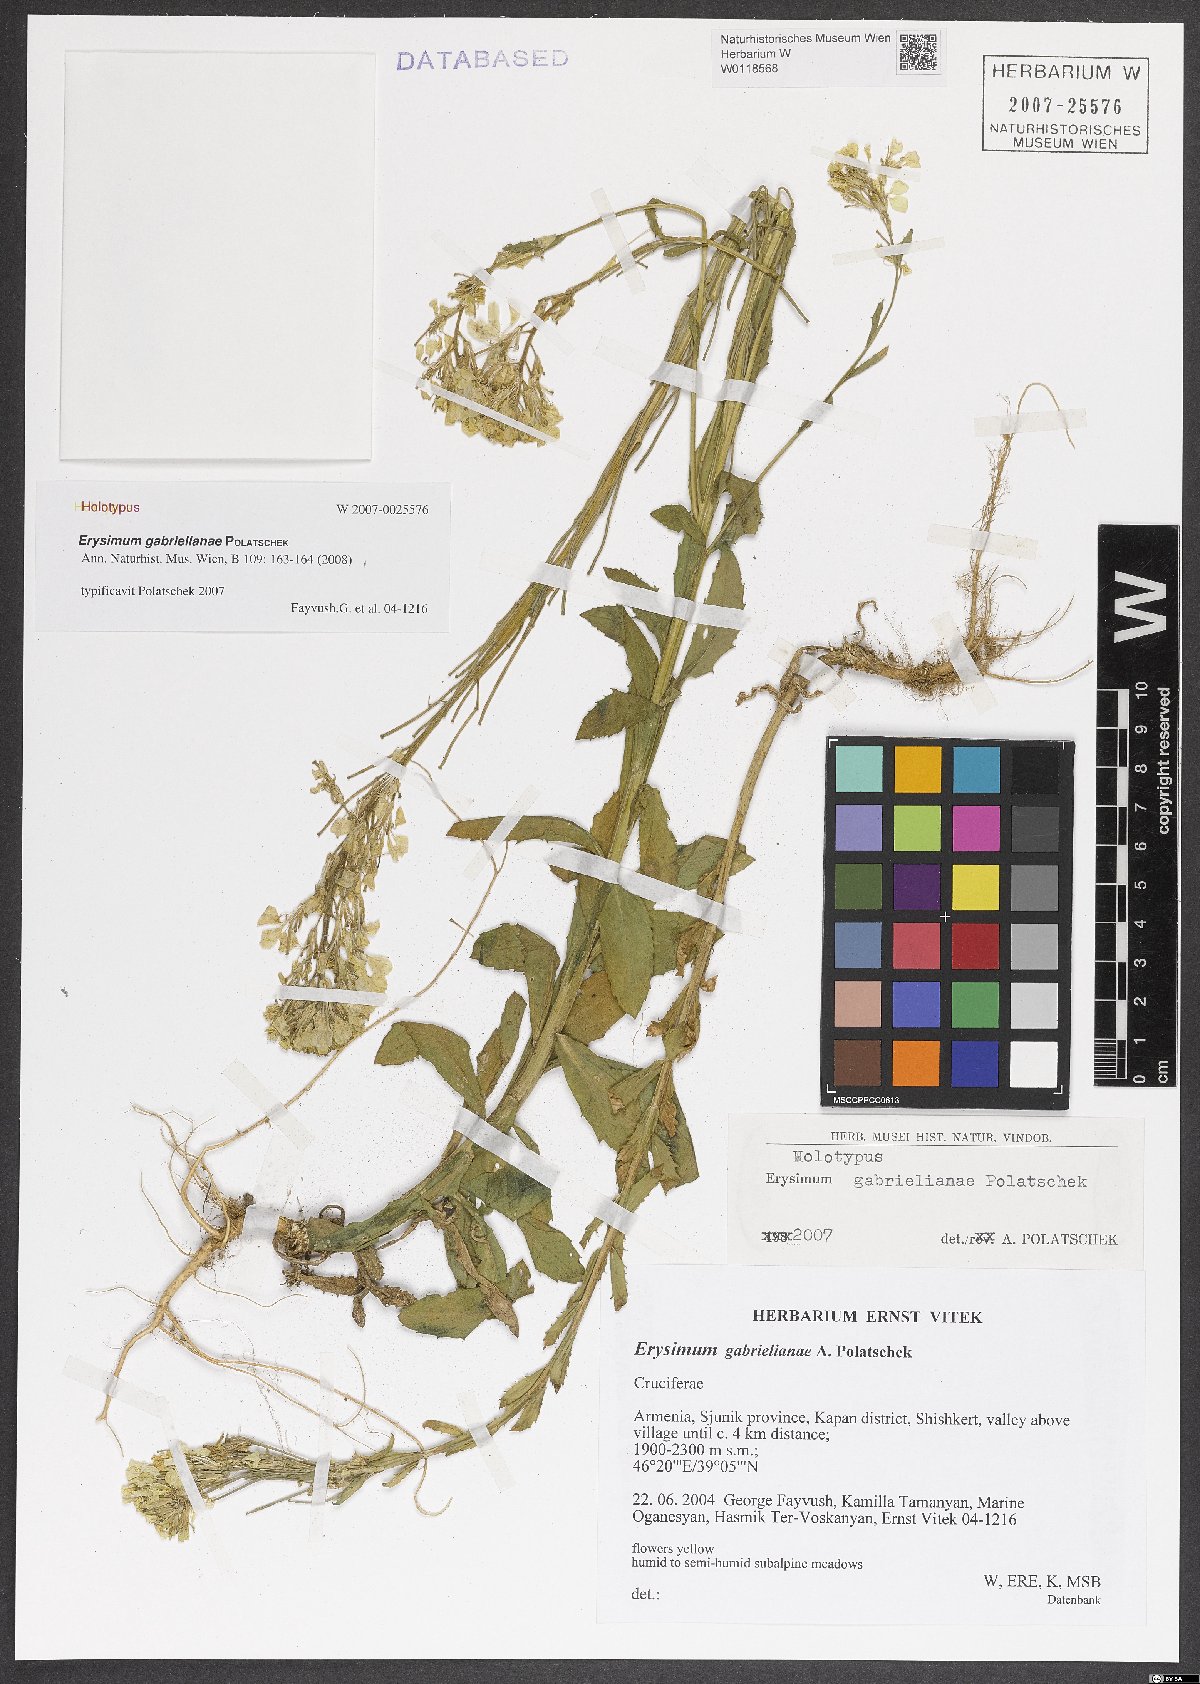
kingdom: Plantae
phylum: Tracheophyta
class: Magnoliopsida
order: Brassicales
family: Brassicaceae
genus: Erysimum
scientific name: Erysimum ibericum
